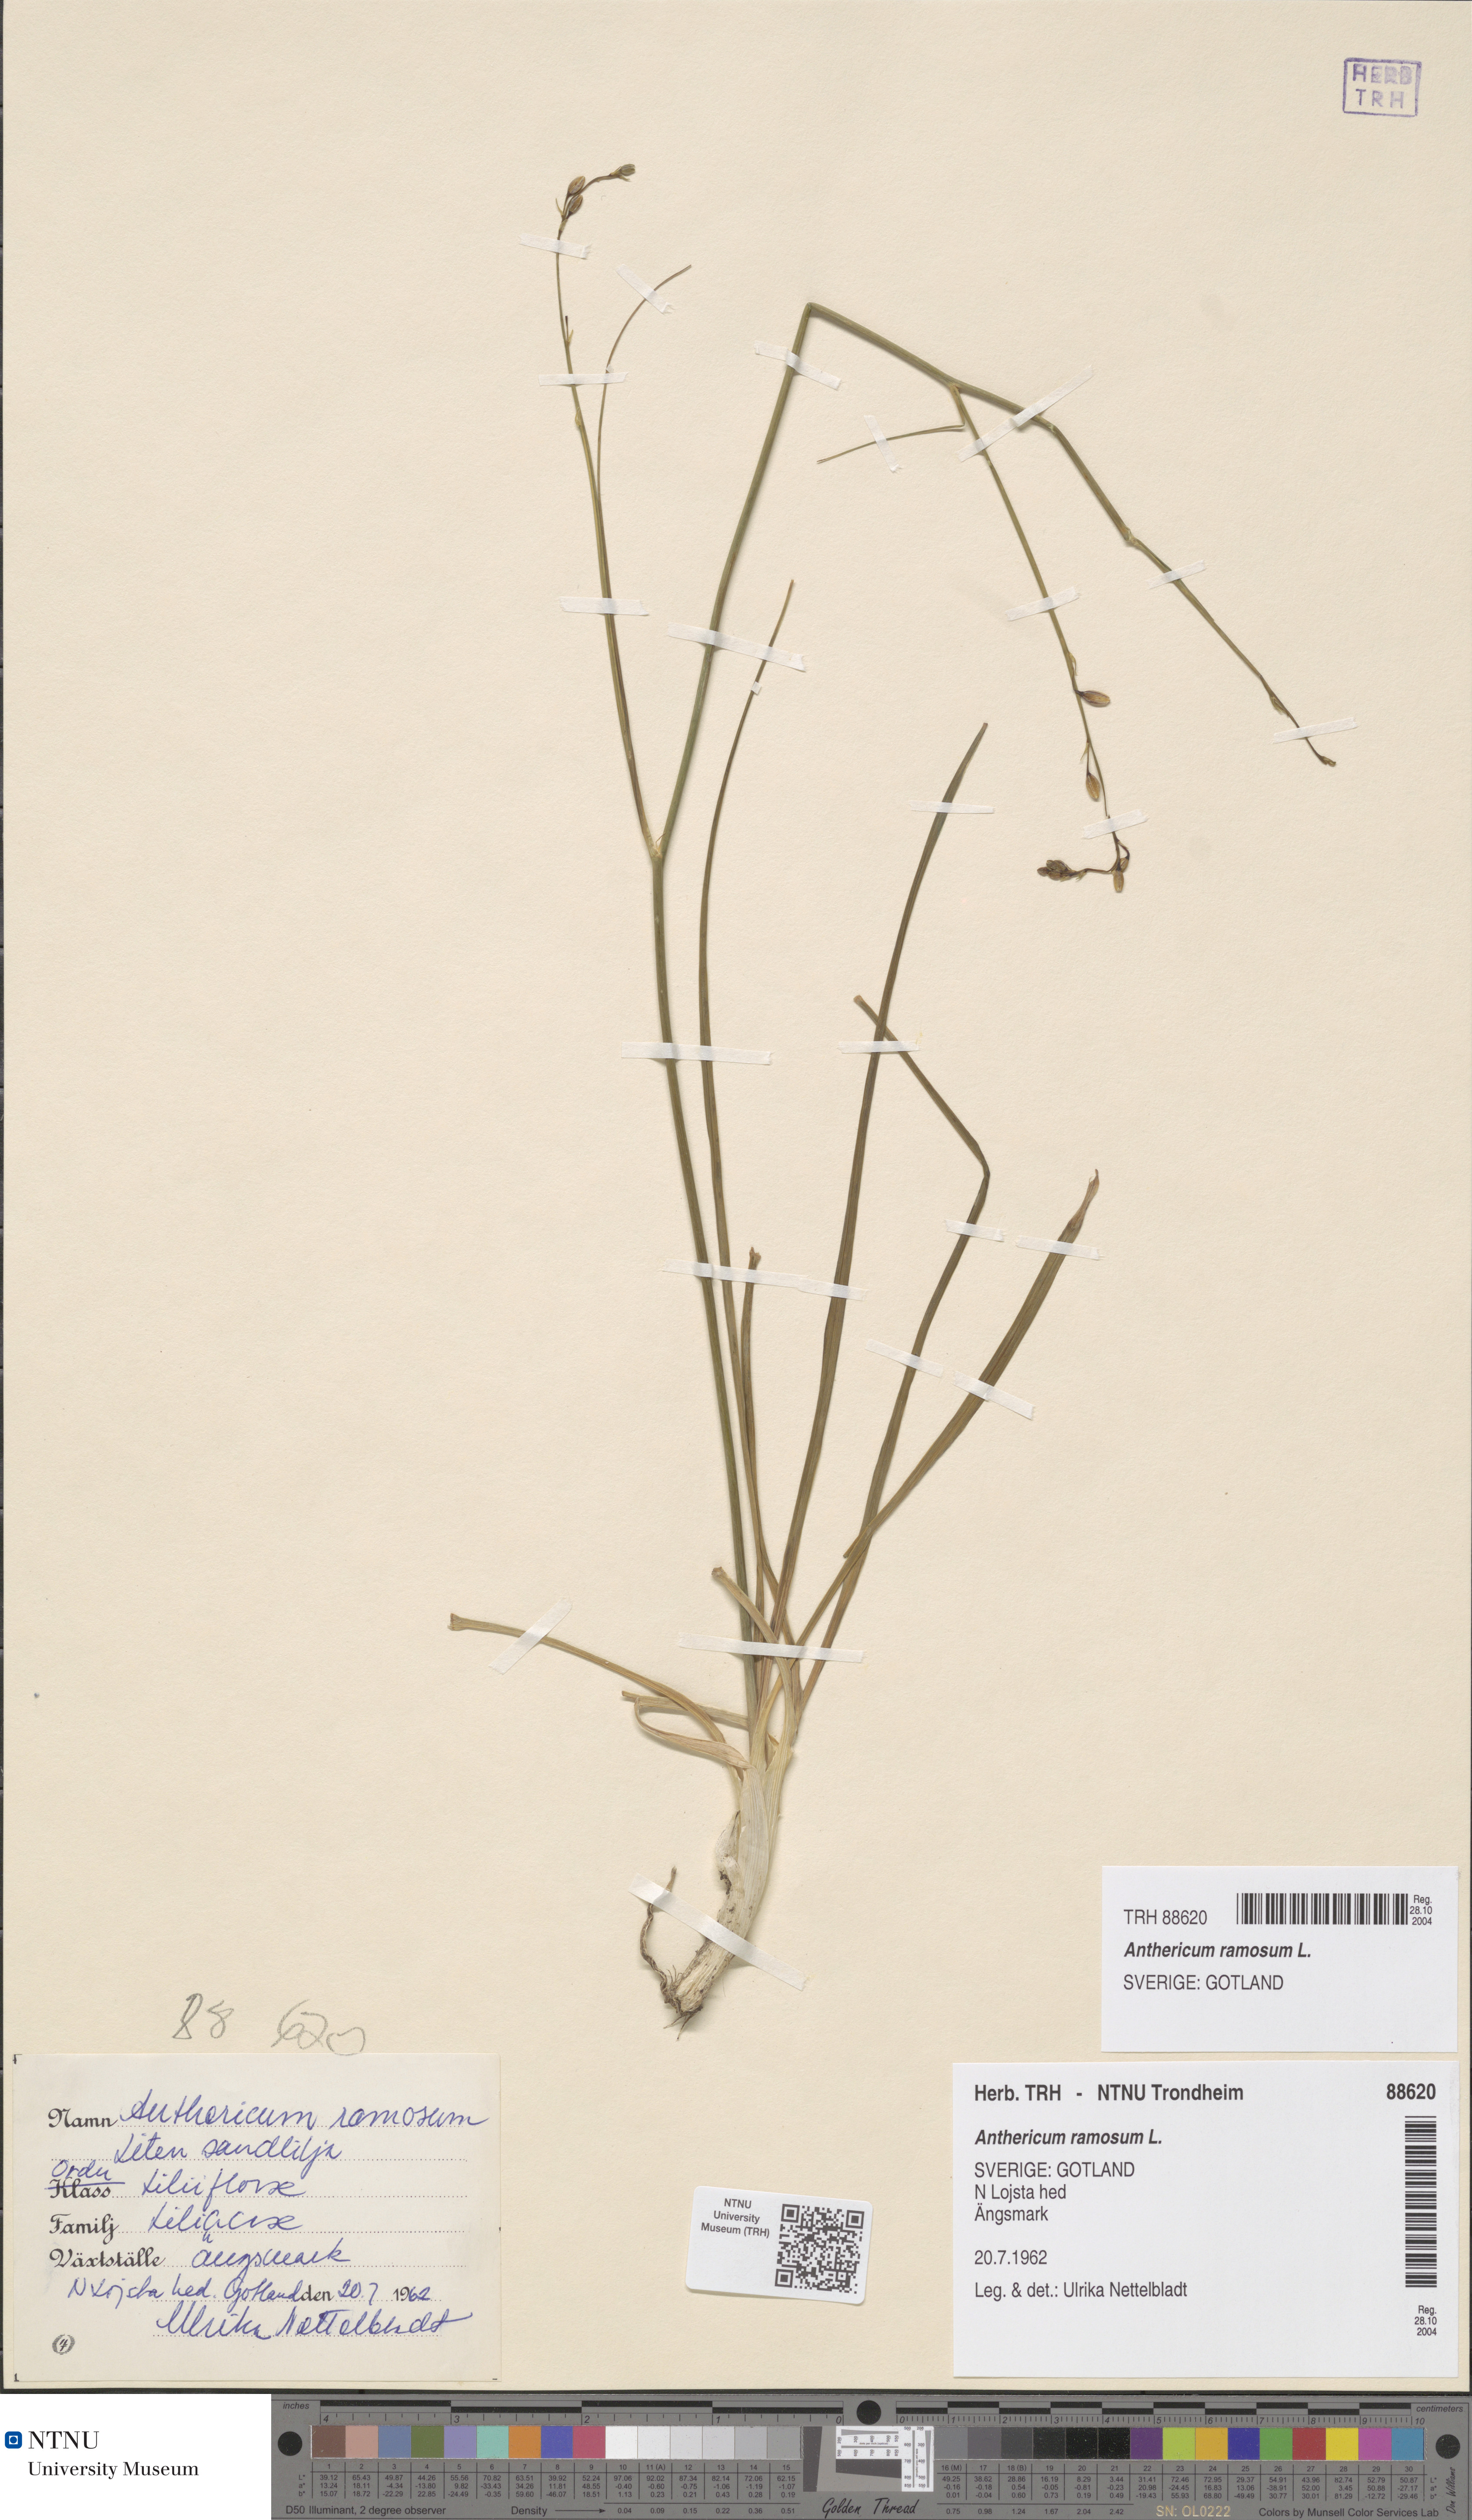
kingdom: Plantae
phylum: Tracheophyta
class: Liliopsida
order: Asparagales
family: Asparagaceae
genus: Anthericum
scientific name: Anthericum ramosum
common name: Branched st. bernard's-lily
